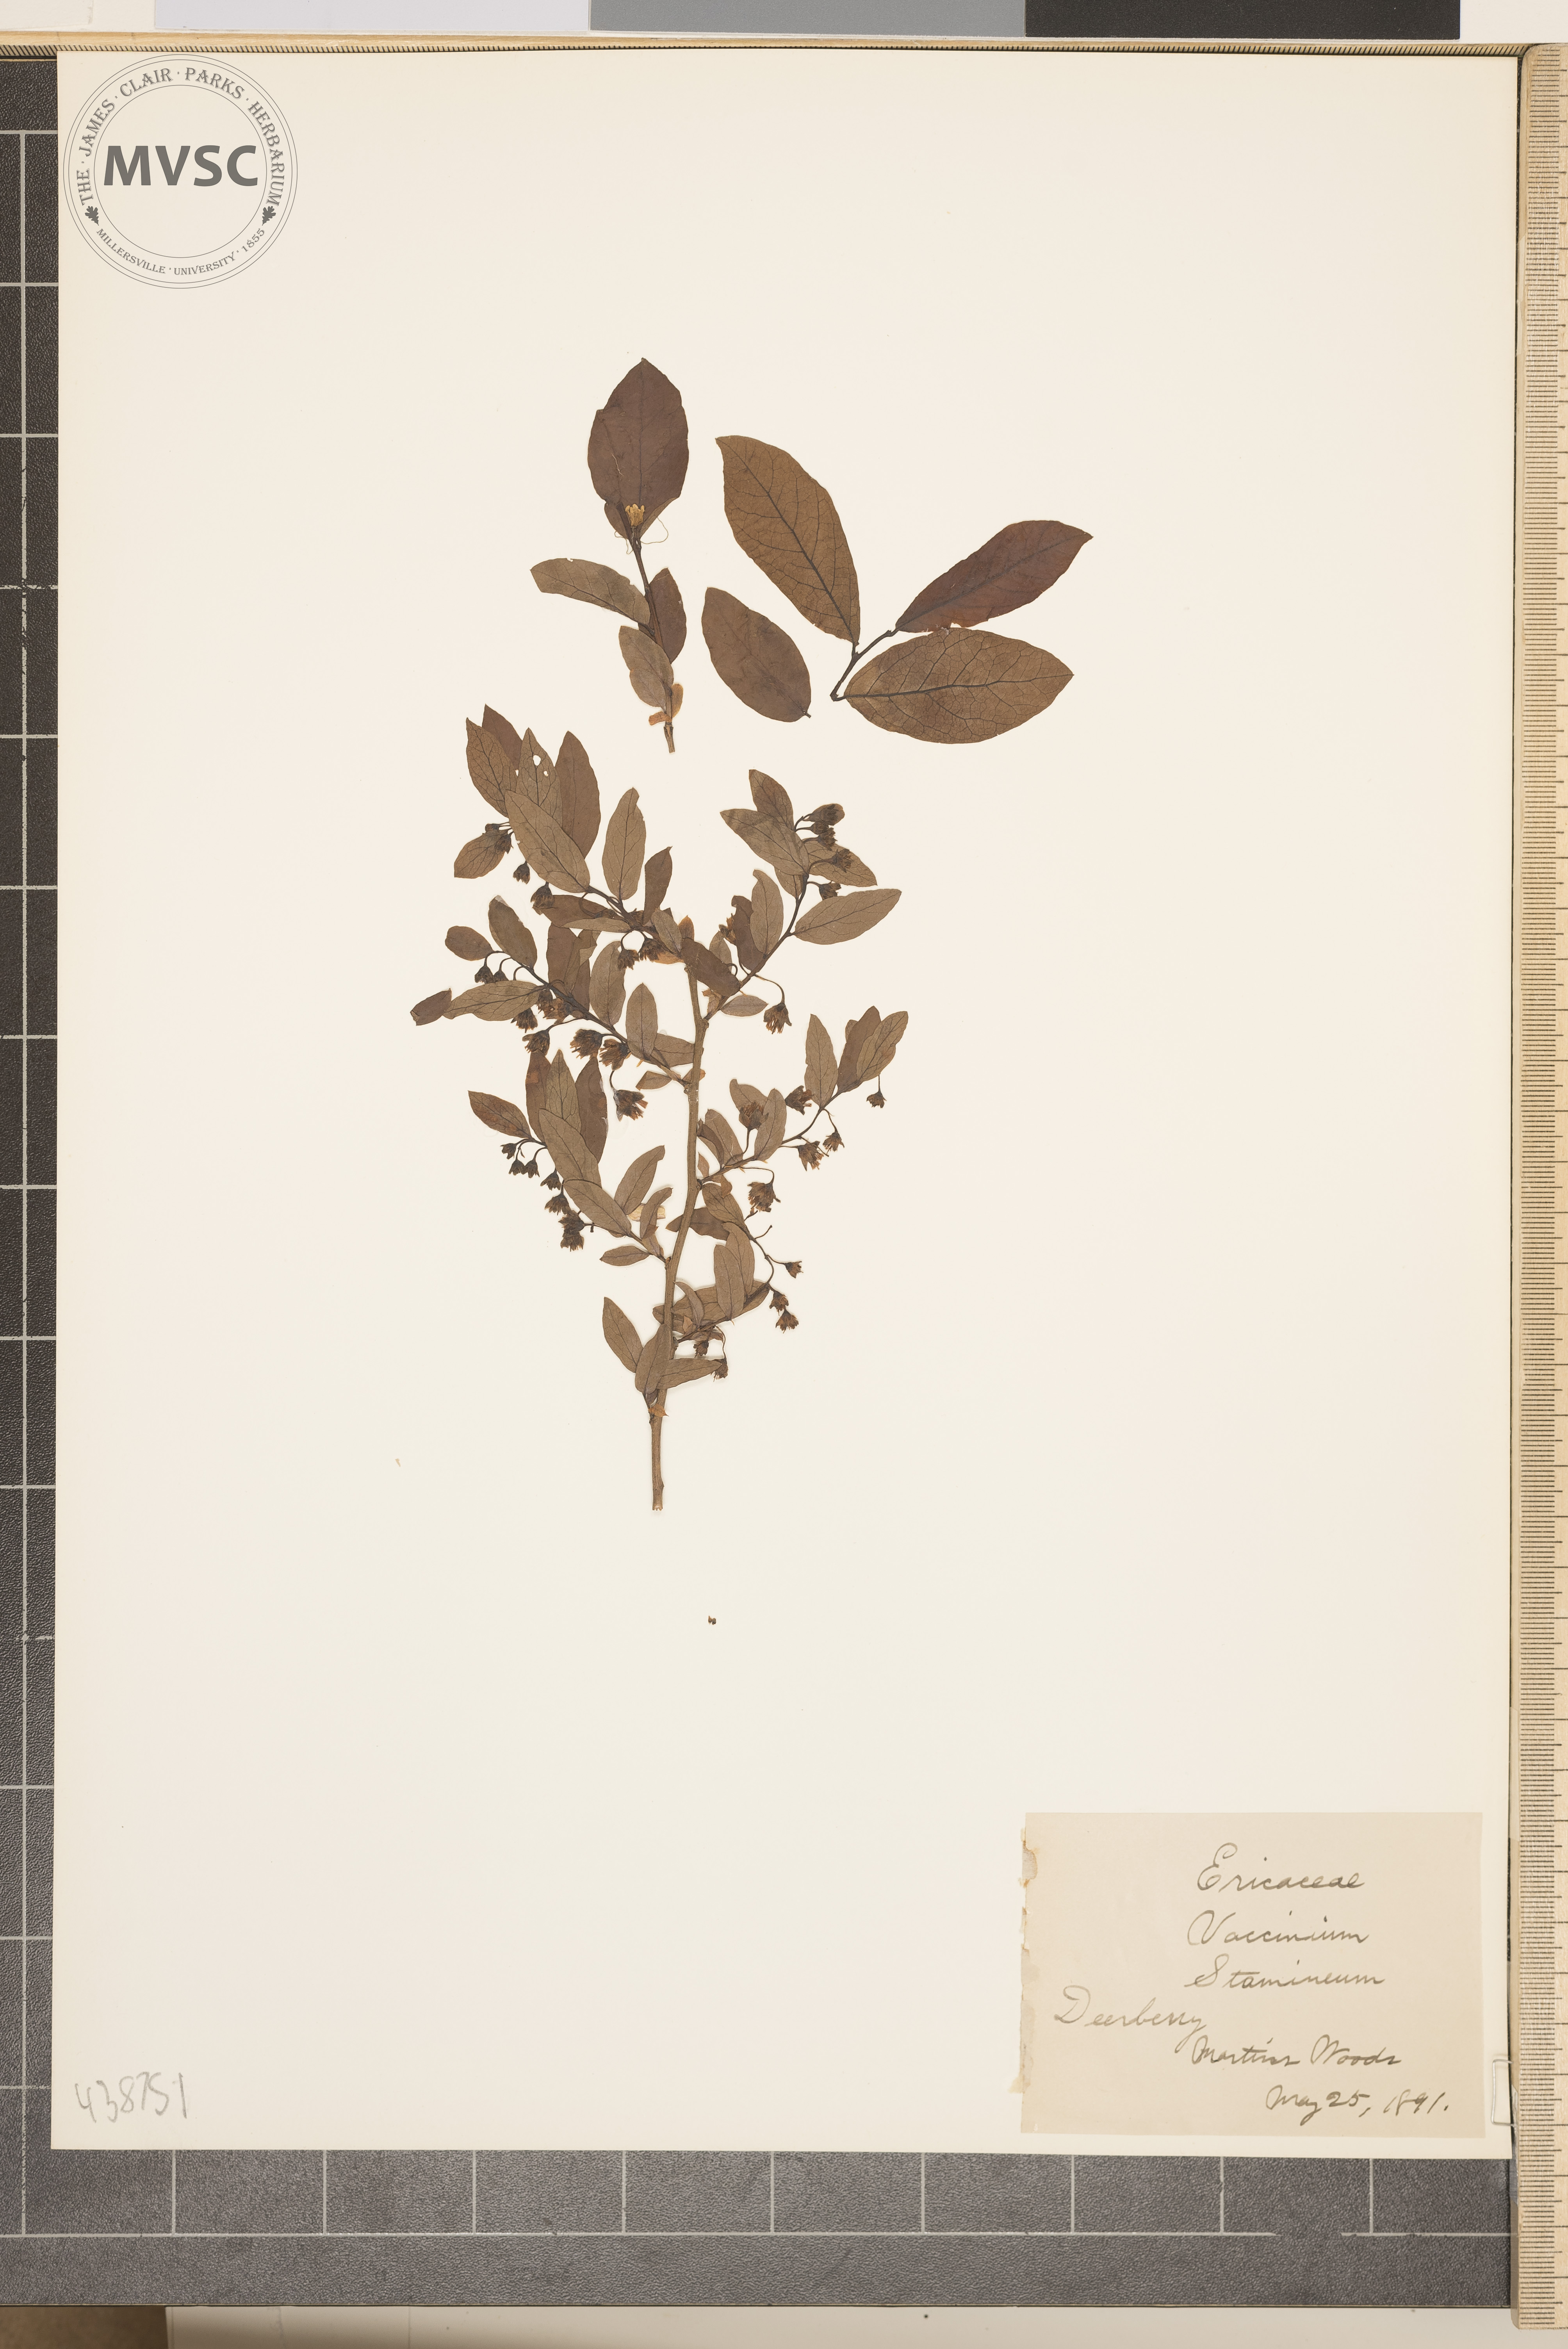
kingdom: Plantae
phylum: Tracheophyta
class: Magnoliopsida
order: Ericales
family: Ericaceae
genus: Vaccinium
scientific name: Vaccinium stamineum
